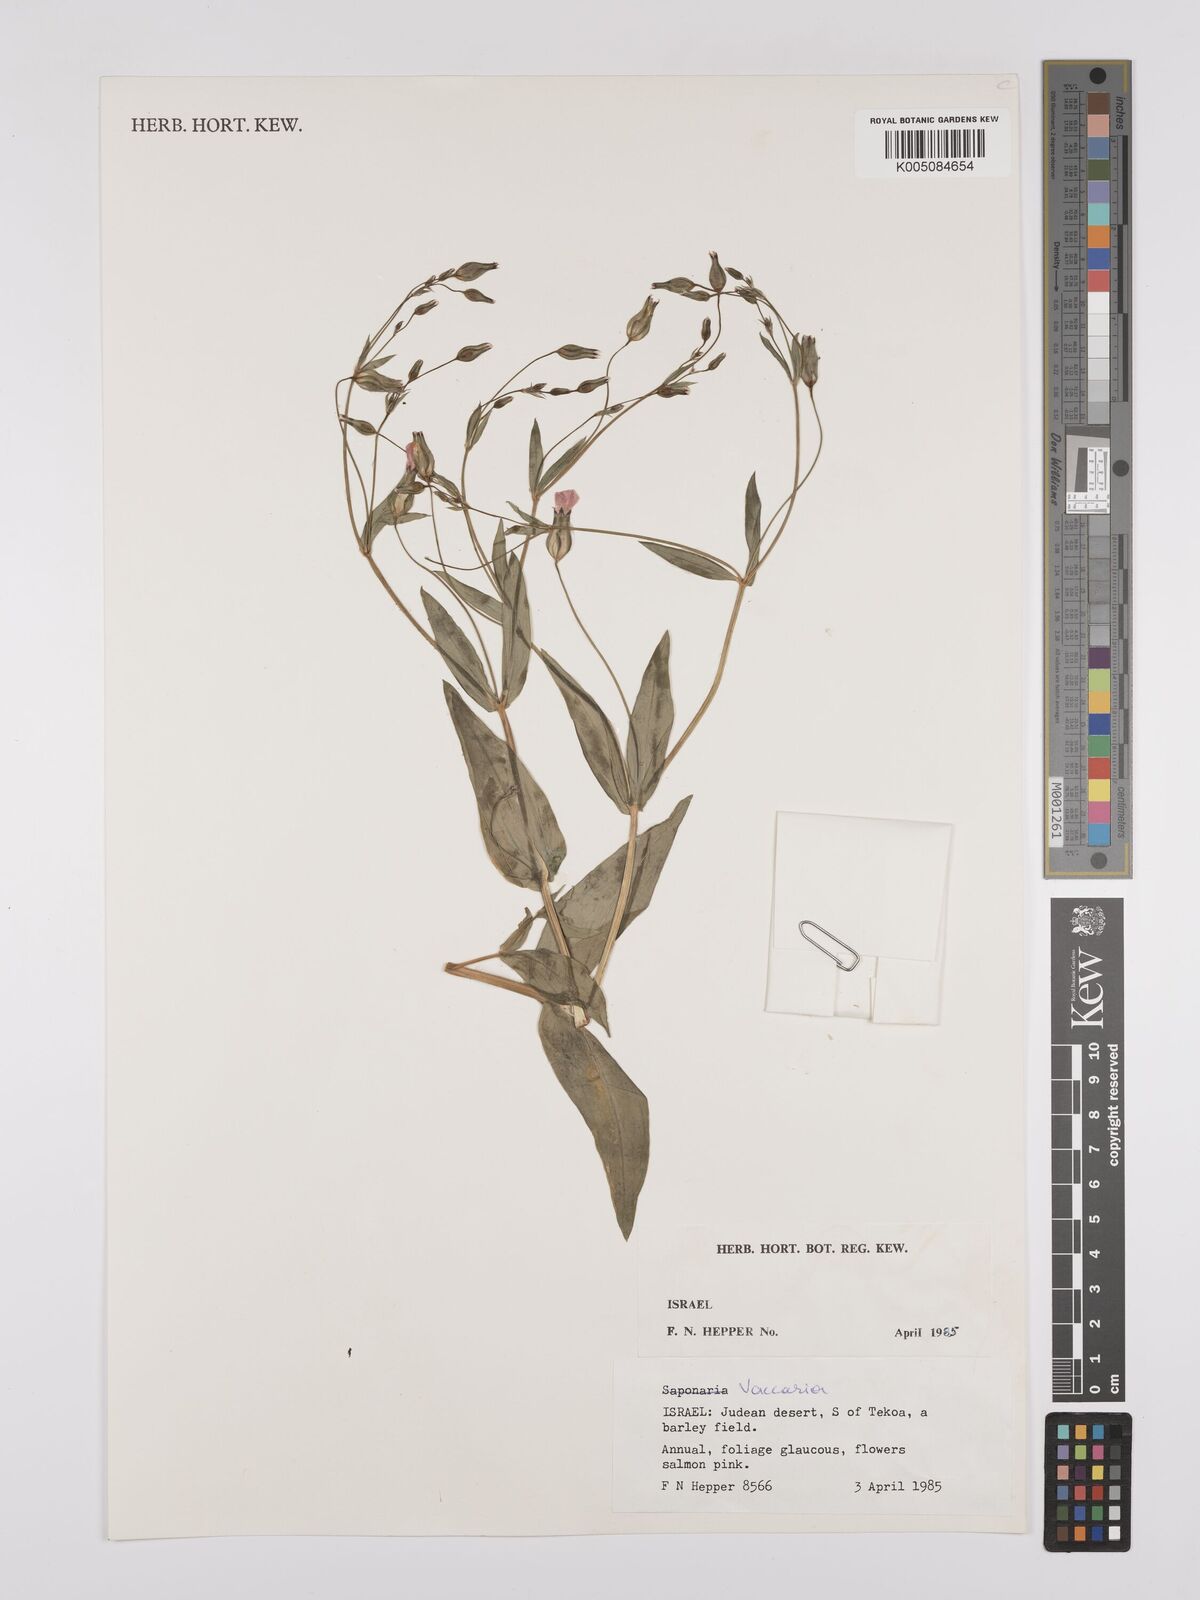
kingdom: Plantae
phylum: Tracheophyta
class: Magnoliopsida
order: Caryophyllales
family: Caryophyllaceae
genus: Vaccaria
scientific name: Vaccaria
